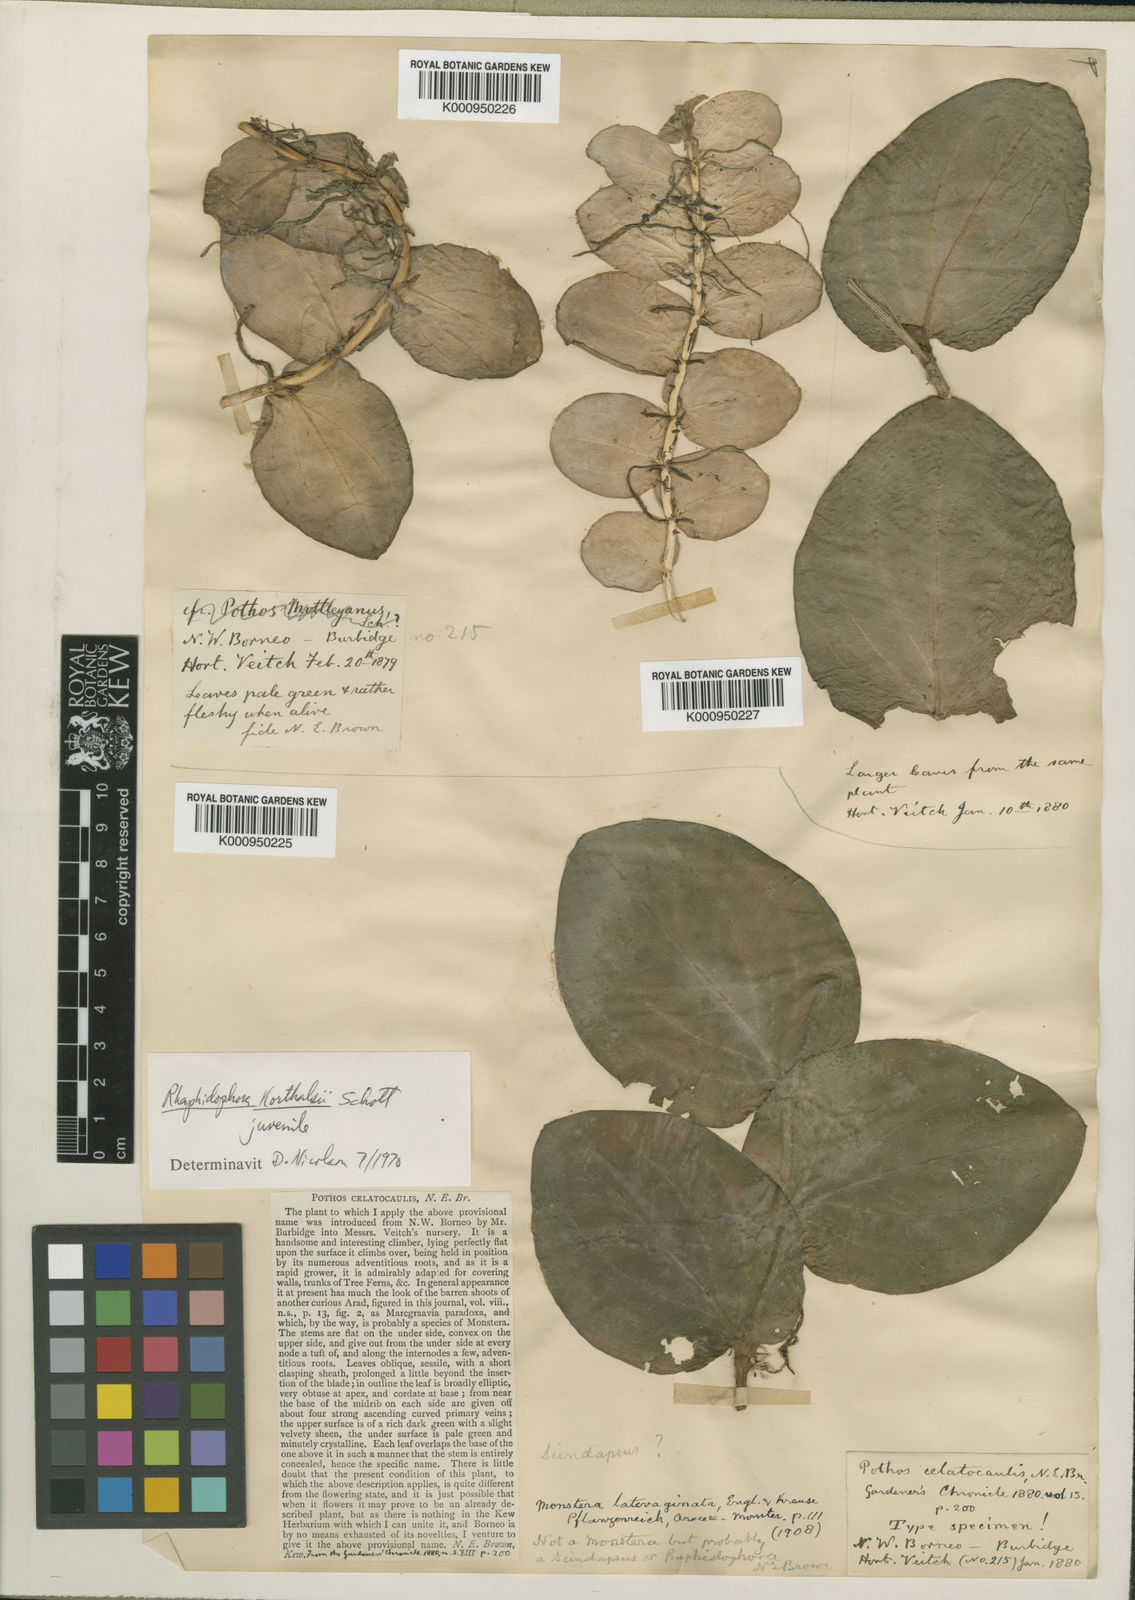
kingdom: Plantae
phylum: Tracheophyta
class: Liliopsida
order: Alismatales
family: Araceae
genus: Rhaphidophora
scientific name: Rhaphidophora korthalsii
